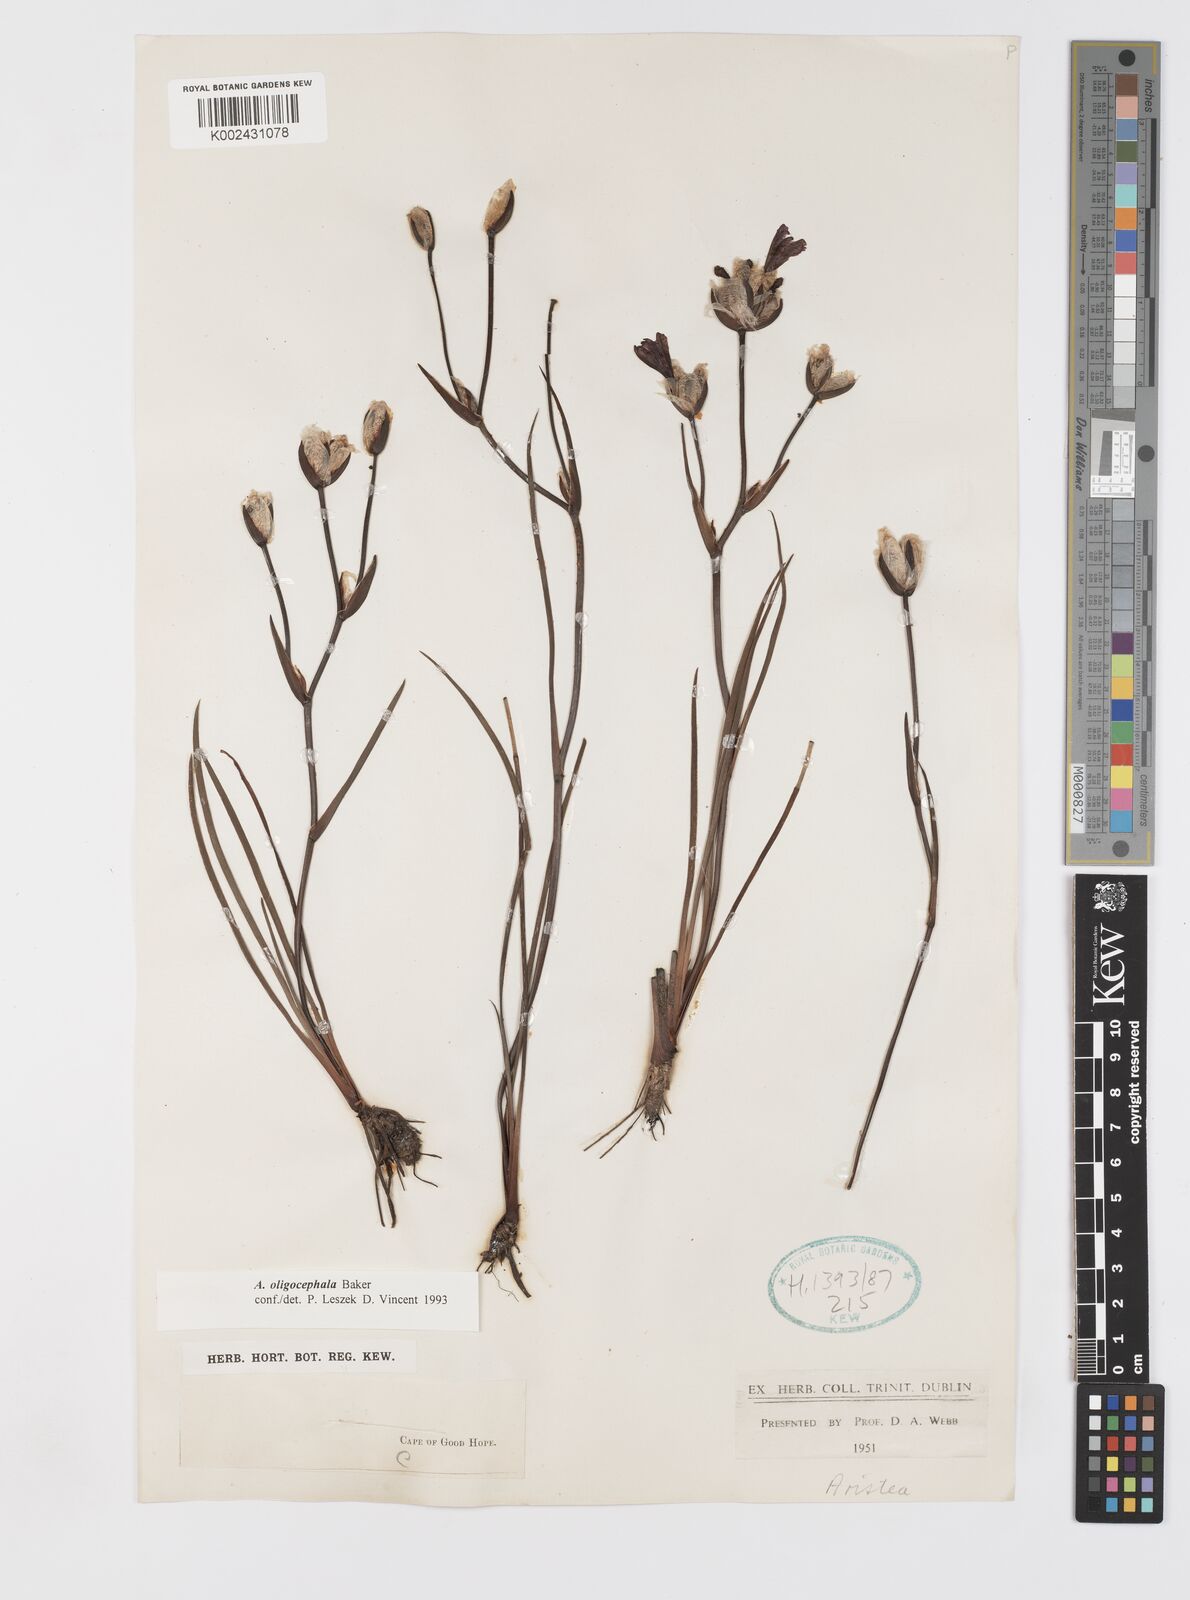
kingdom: Plantae
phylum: Tracheophyta
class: Liliopsida
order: Asparagales
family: Iridaceae
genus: Aristea
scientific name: Aristea oligocephala
